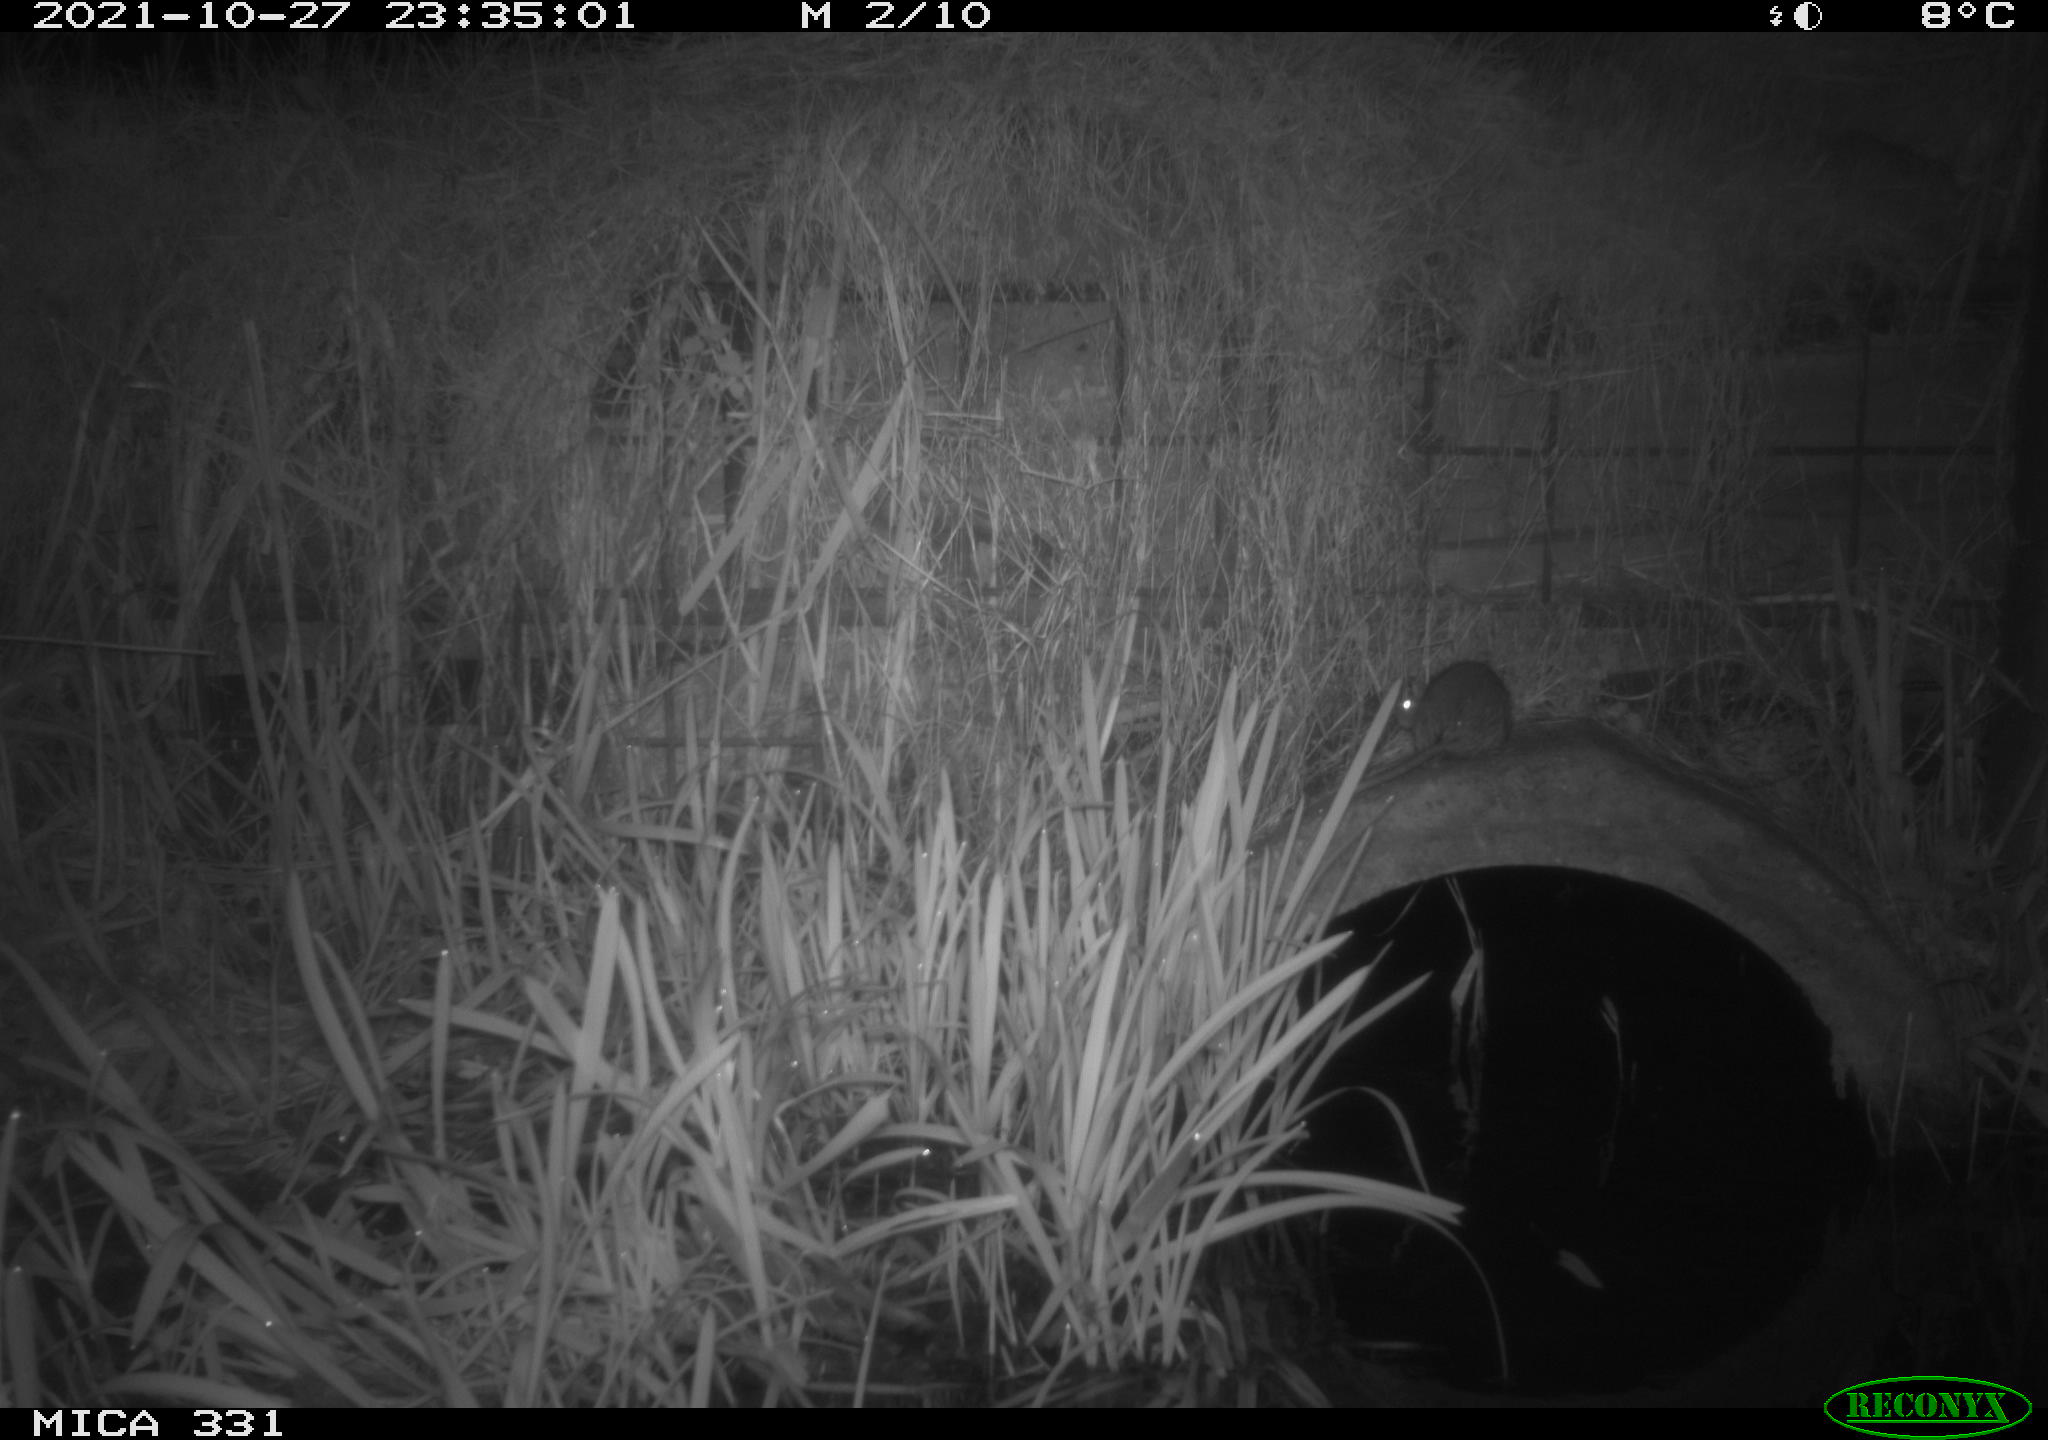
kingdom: Animalia
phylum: Chordata
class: Mammalia
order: Rodentia
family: Muridae
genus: Rattus
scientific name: Rattus norvegicus
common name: Brown rat
